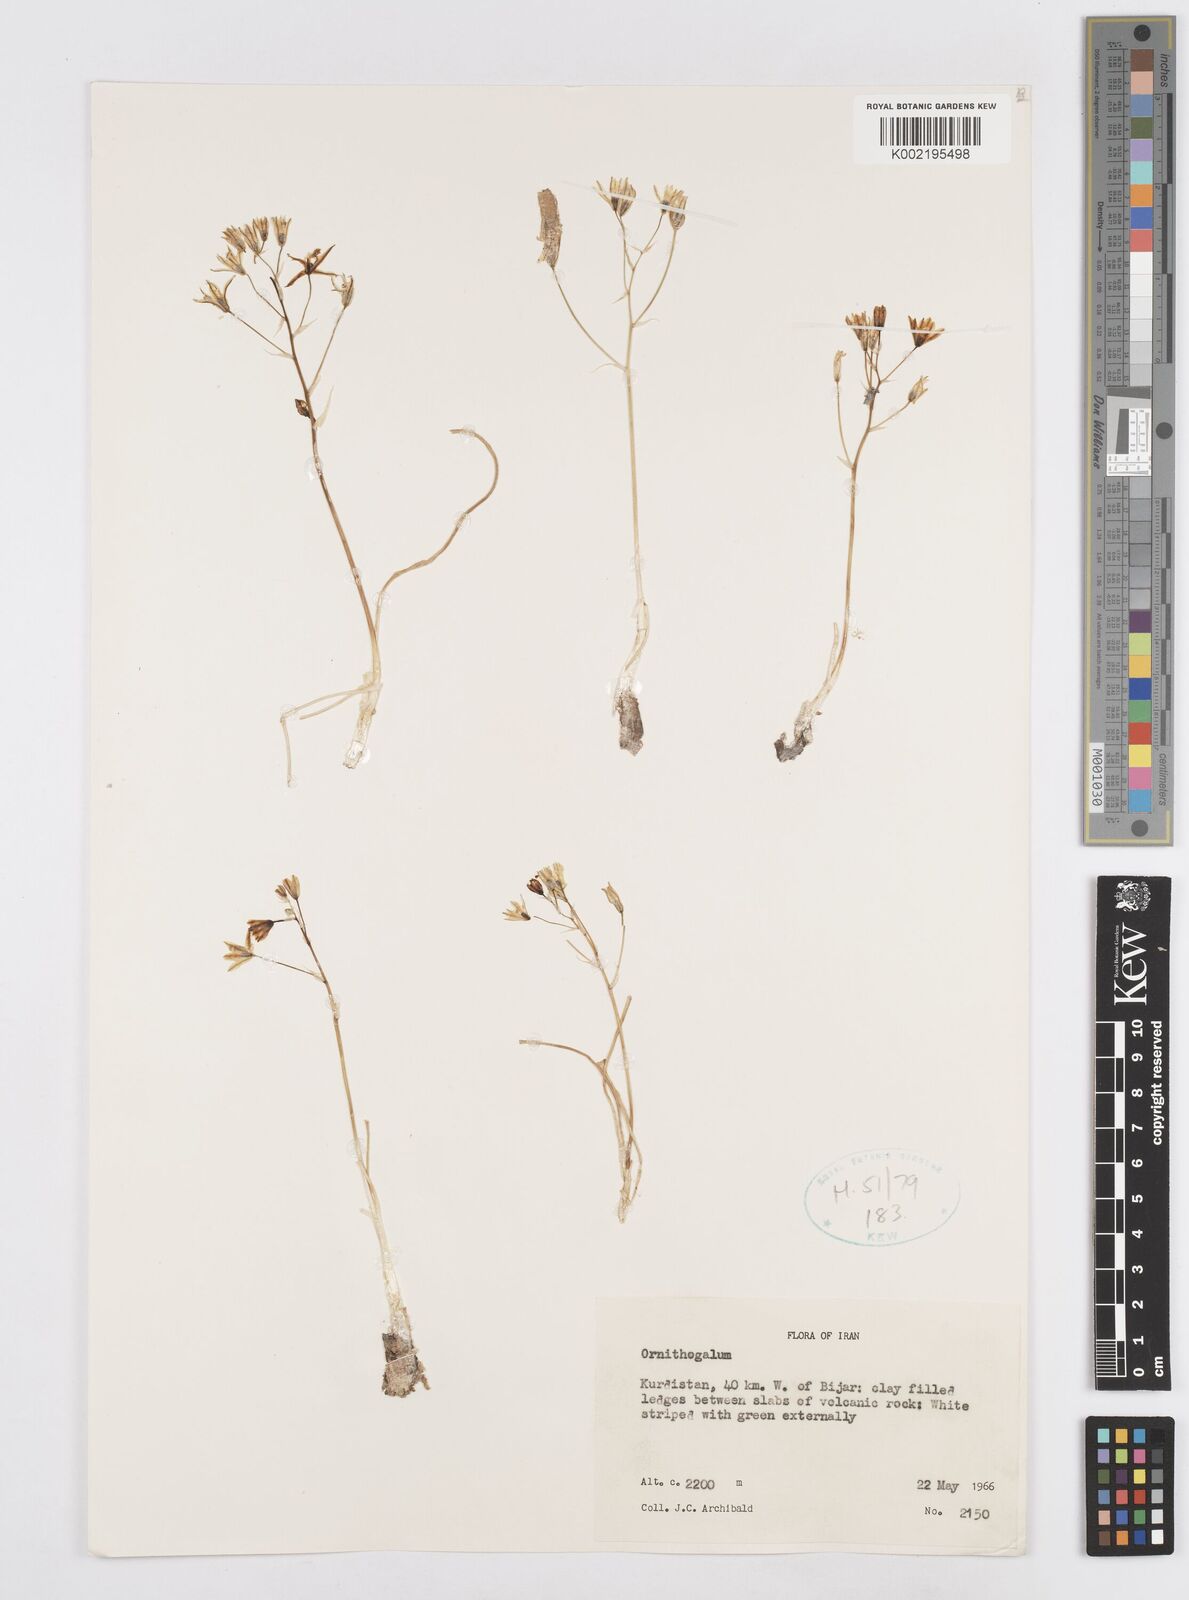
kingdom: Plantae
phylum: Tracheophyta
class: Liliopsida
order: Asparagales
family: Asparagaceae
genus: Ornithogalum
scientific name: Ornithogalum
